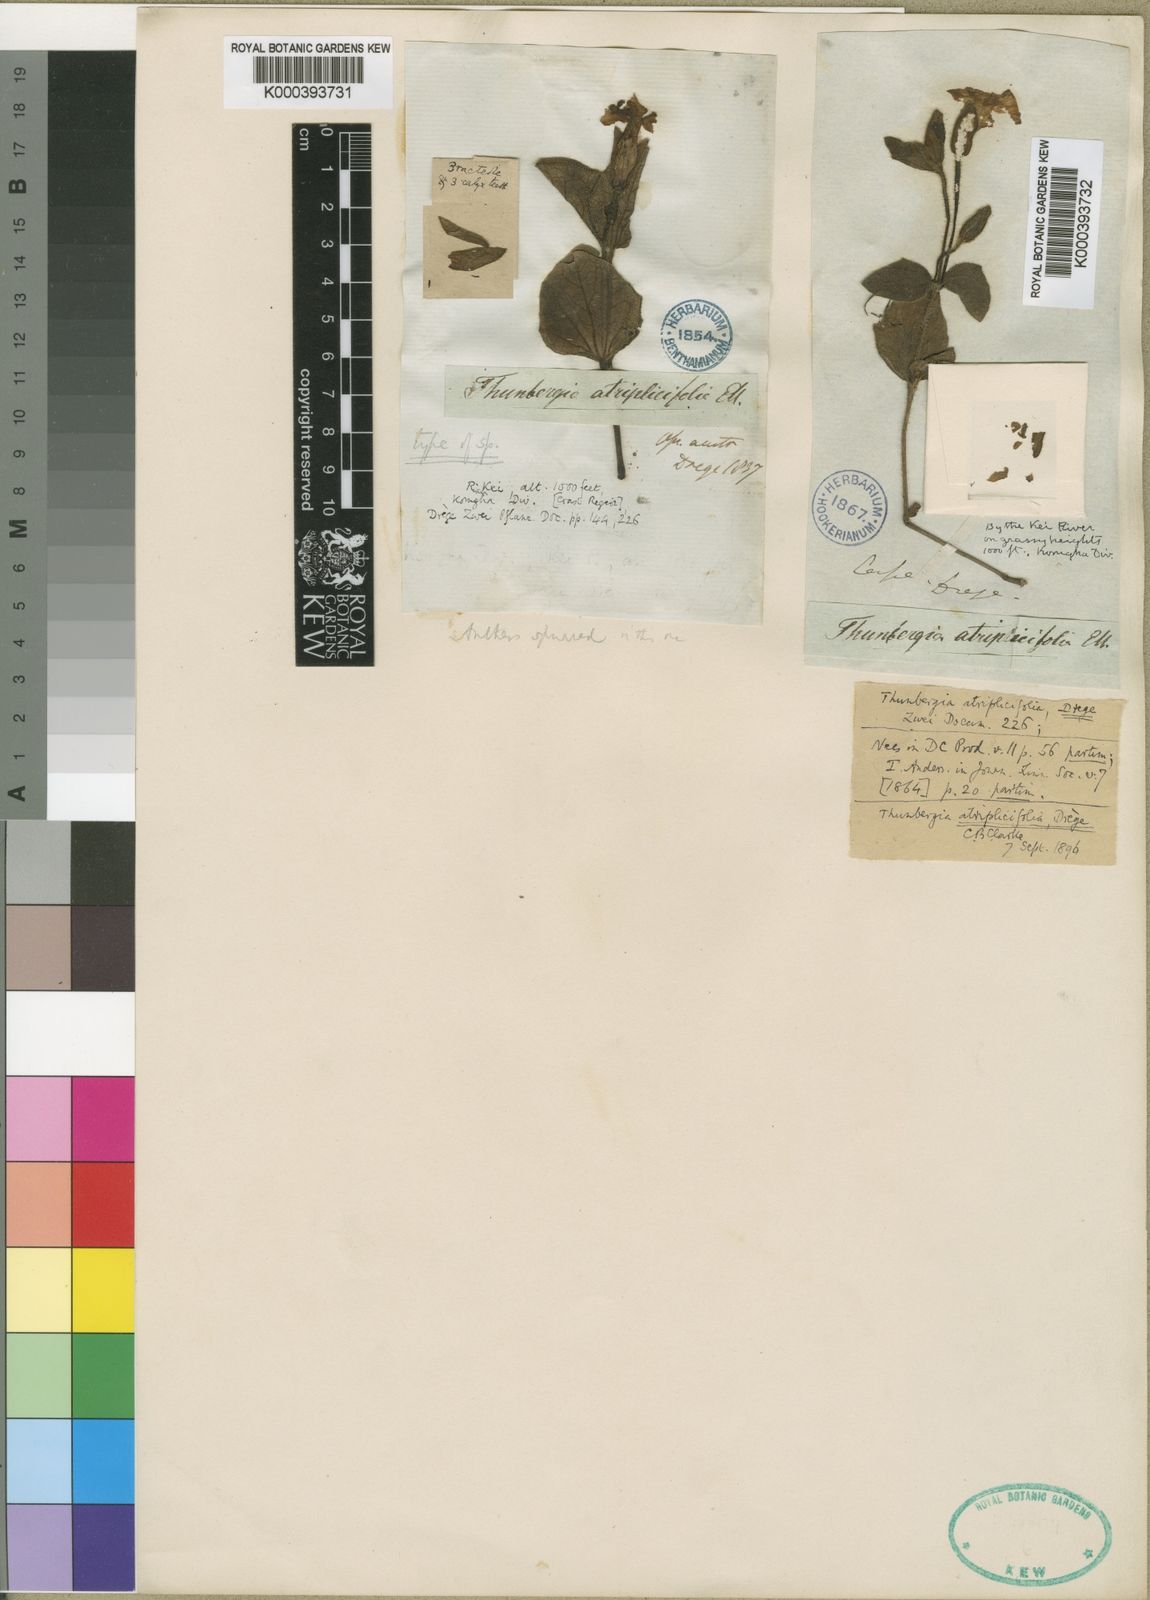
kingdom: Plantae
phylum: Tracheophyta
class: Magnoliopsida
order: Lamiales
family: Acanthaceae
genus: Thunbergia
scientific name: Thunbergia atriplicifolia
